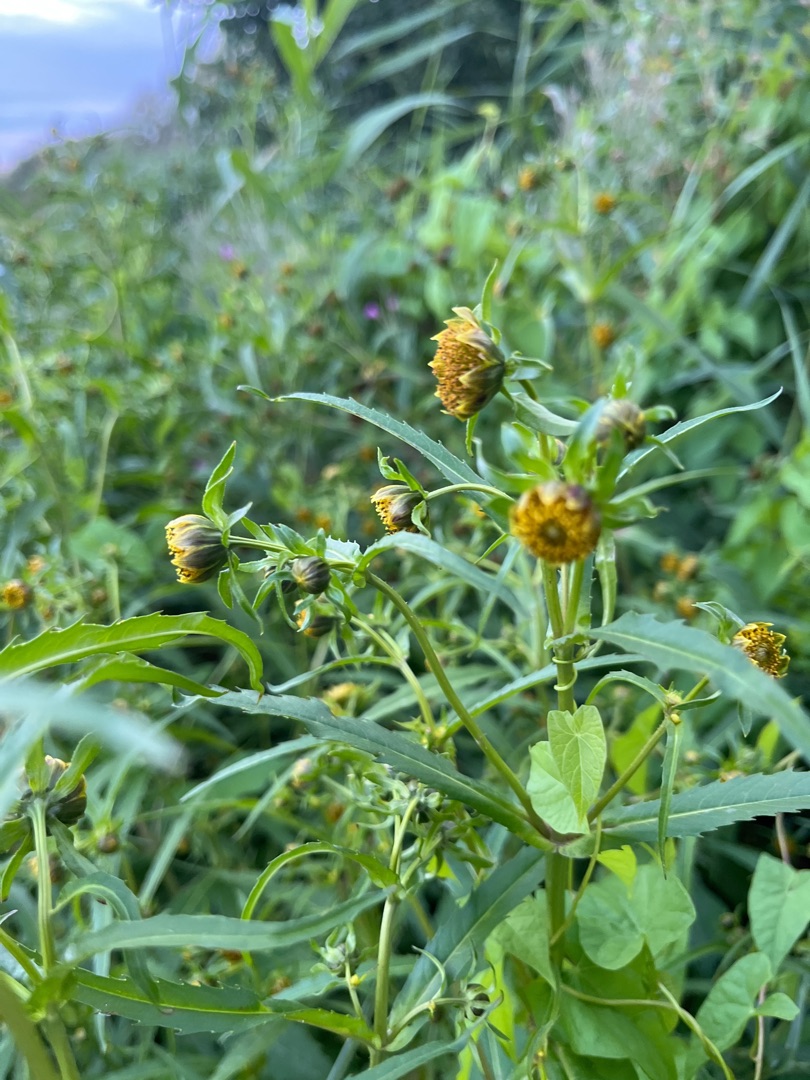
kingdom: Plantae
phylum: Tracheophyta
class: Magnoliopsida
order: Asterales
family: Asteraceae
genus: Bidens
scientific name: Bidens cernua
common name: Nikkende brøndsel
